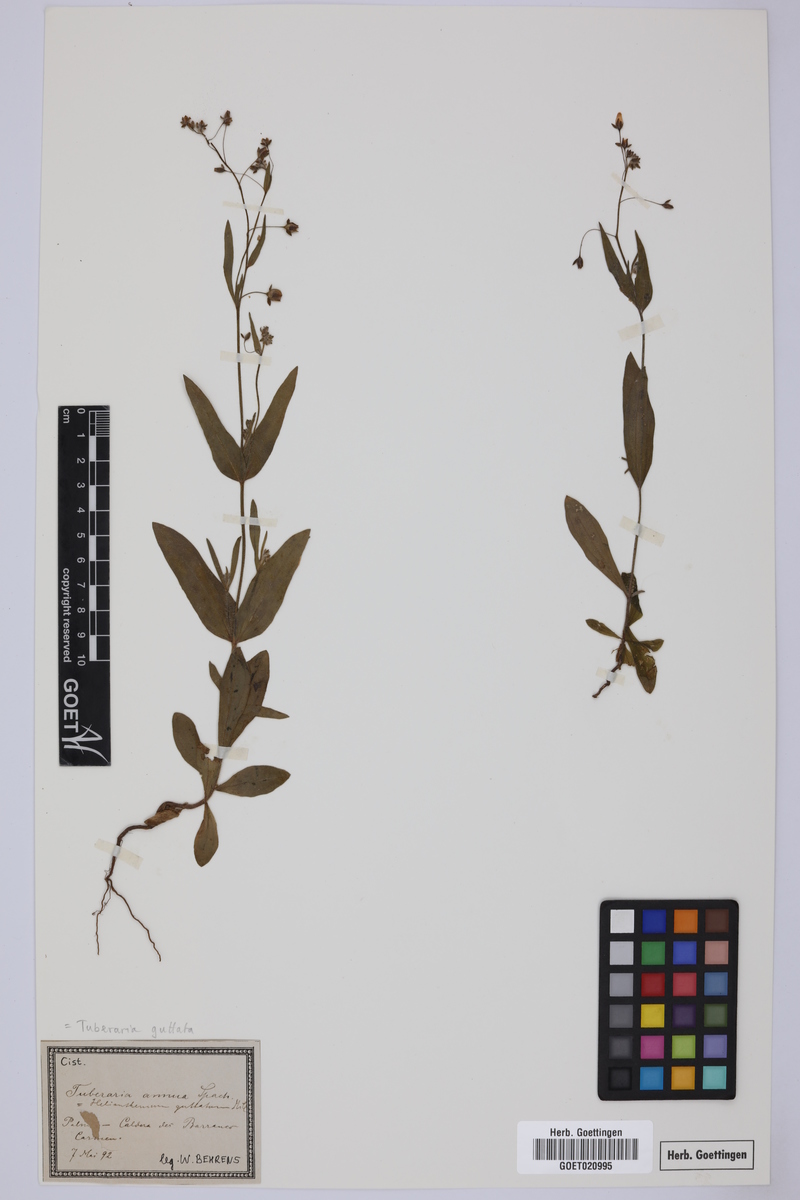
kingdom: Plantae
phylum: Tracheophyta
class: Magnoliopsida
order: Malvales
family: Cistaceae
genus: Tuberaria
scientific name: Tuberaria guttata
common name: Spotted rock-rose
